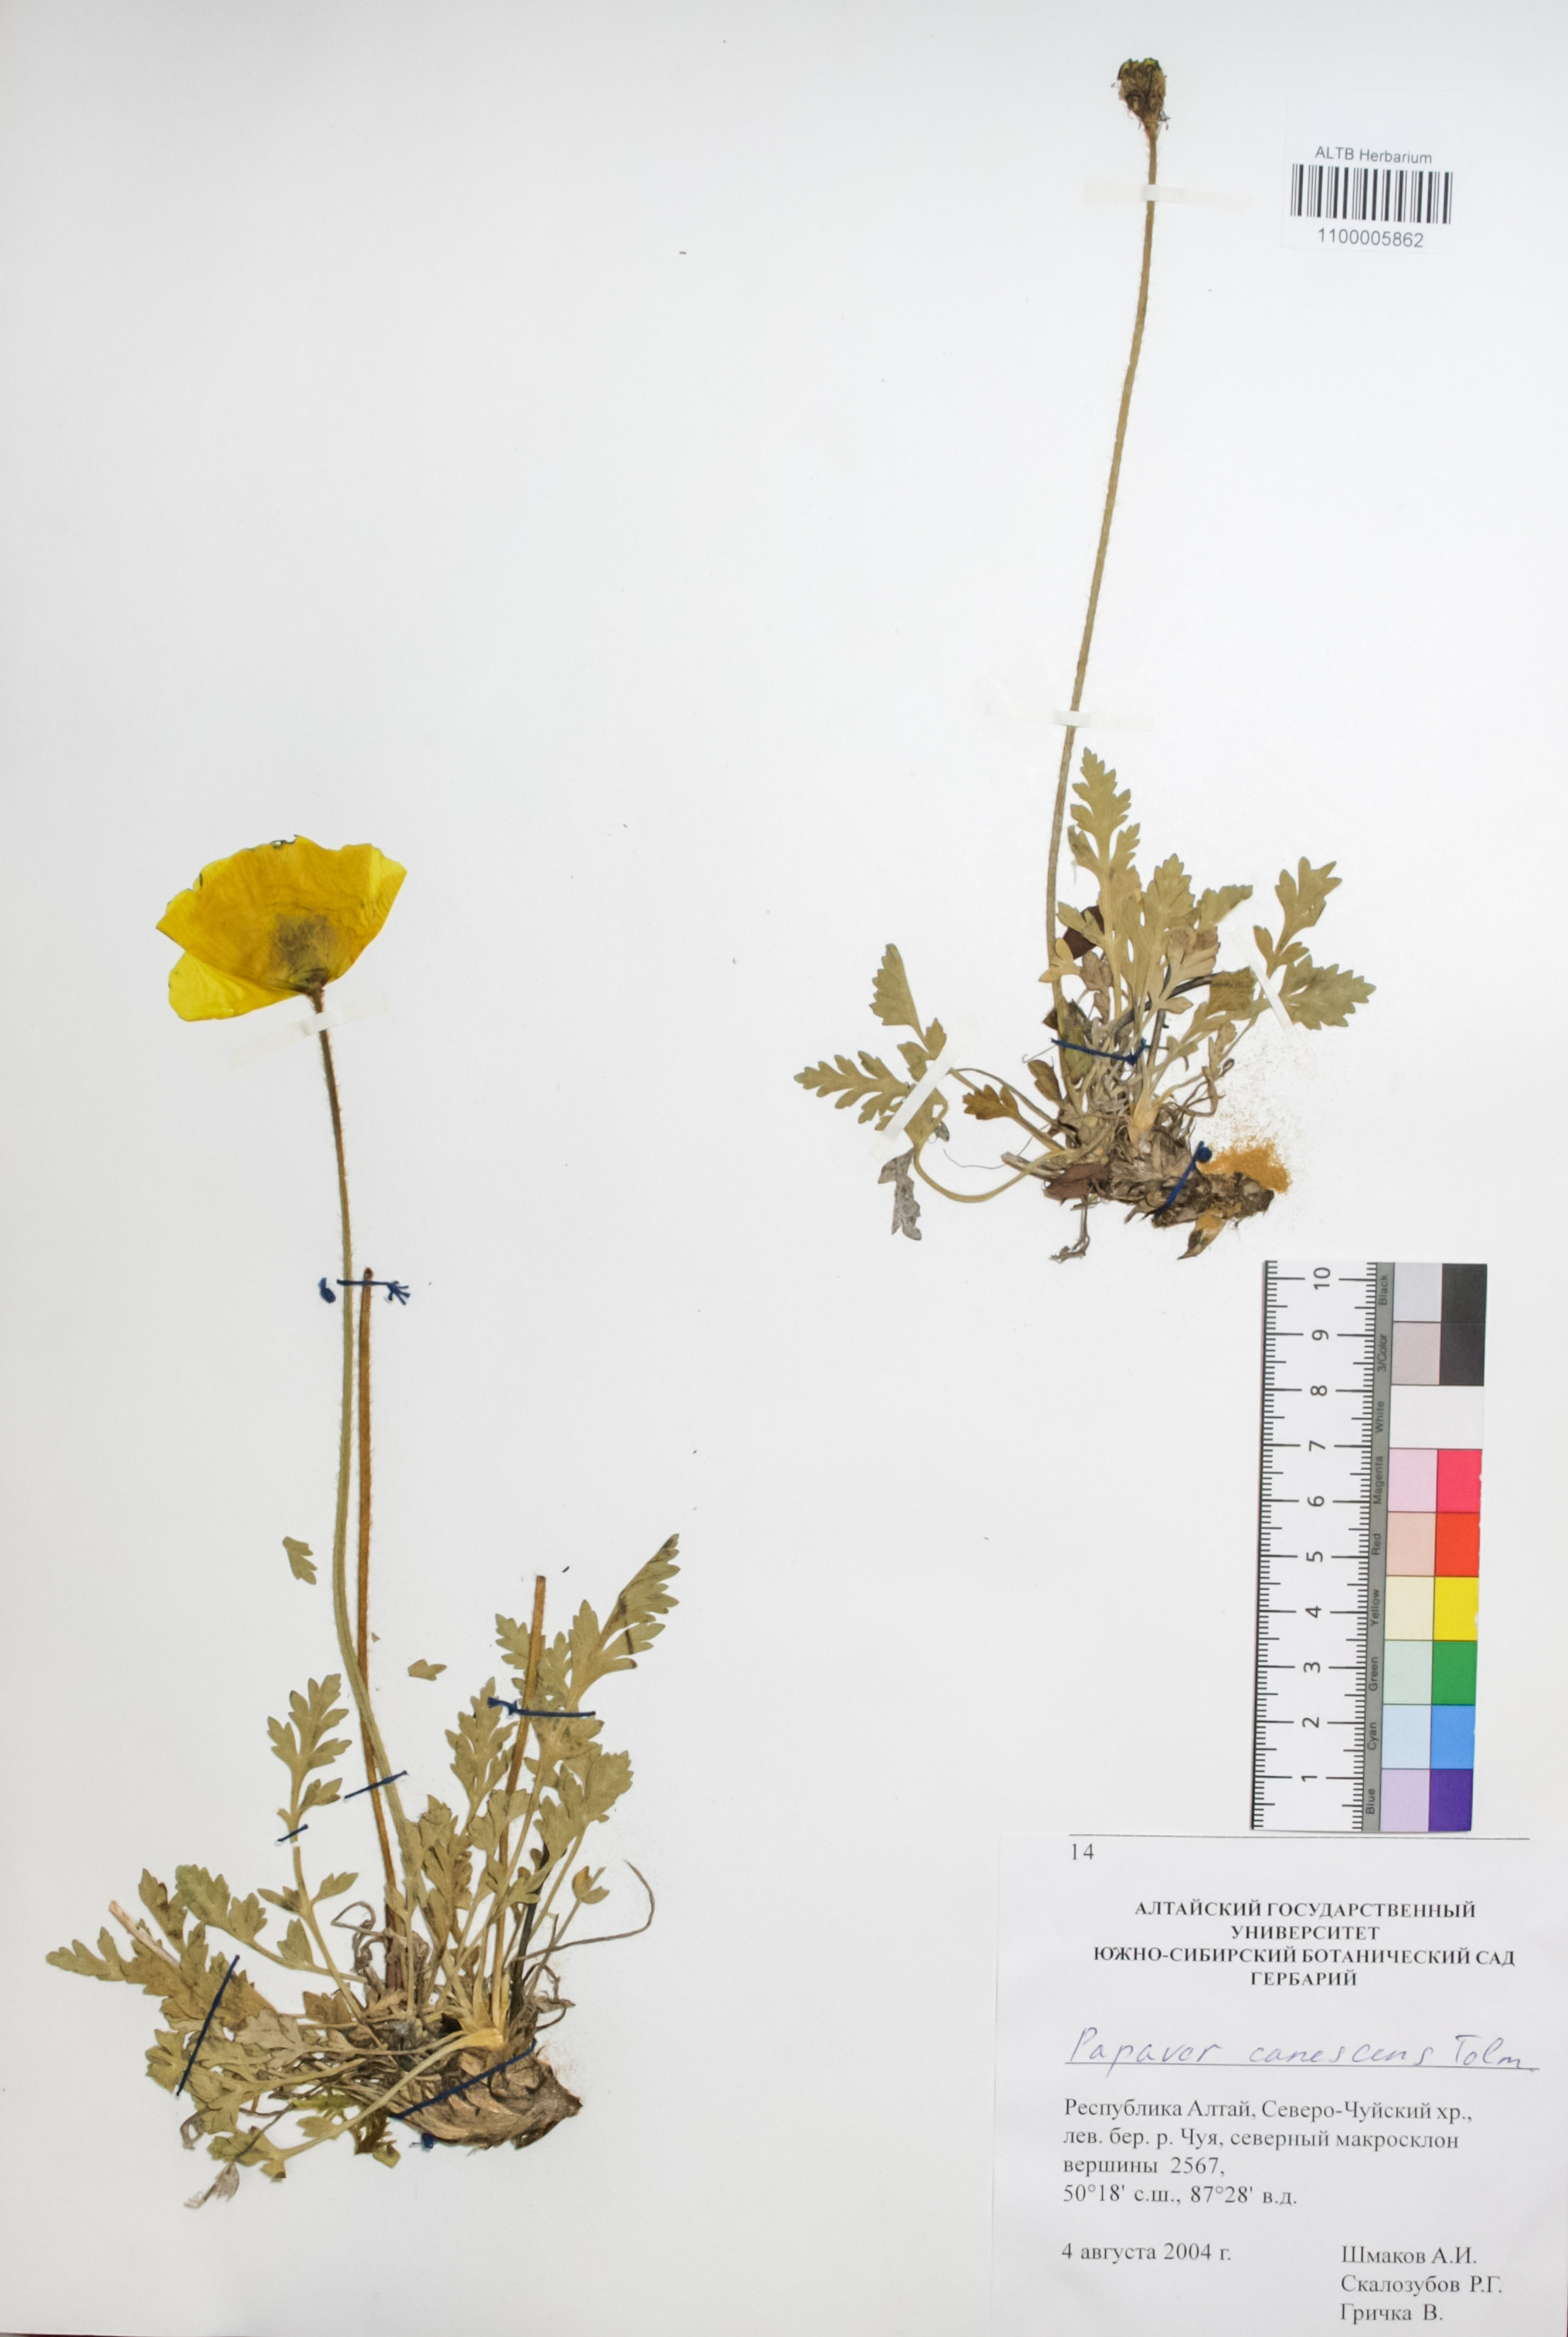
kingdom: Plantae
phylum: Tracheophyta
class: Magnoliopsida
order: Ranunculales
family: Papaveraceae
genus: Papaver
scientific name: Papaver canescens
